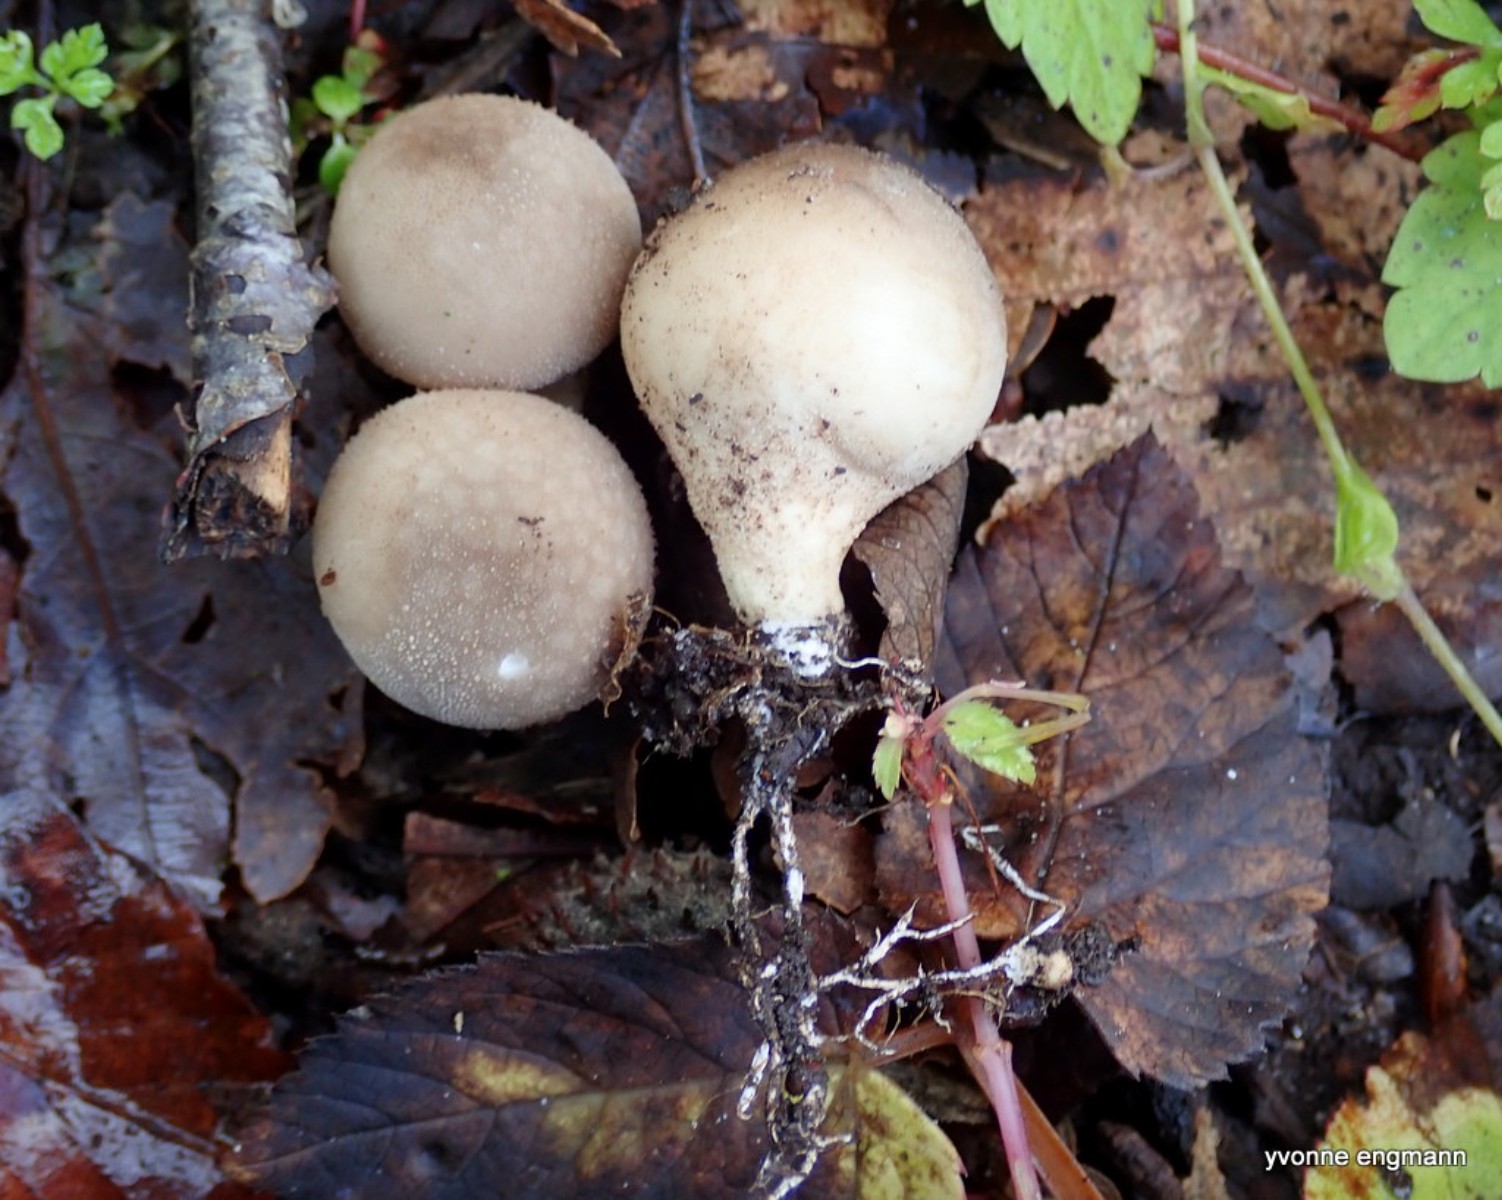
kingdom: Fungi
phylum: Basidiomycota
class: Agaricomycetes
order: Agaricales
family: Lycoperdaceae
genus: Apioperdon
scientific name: Apioperdon pyriforme
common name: pære-støvbold
